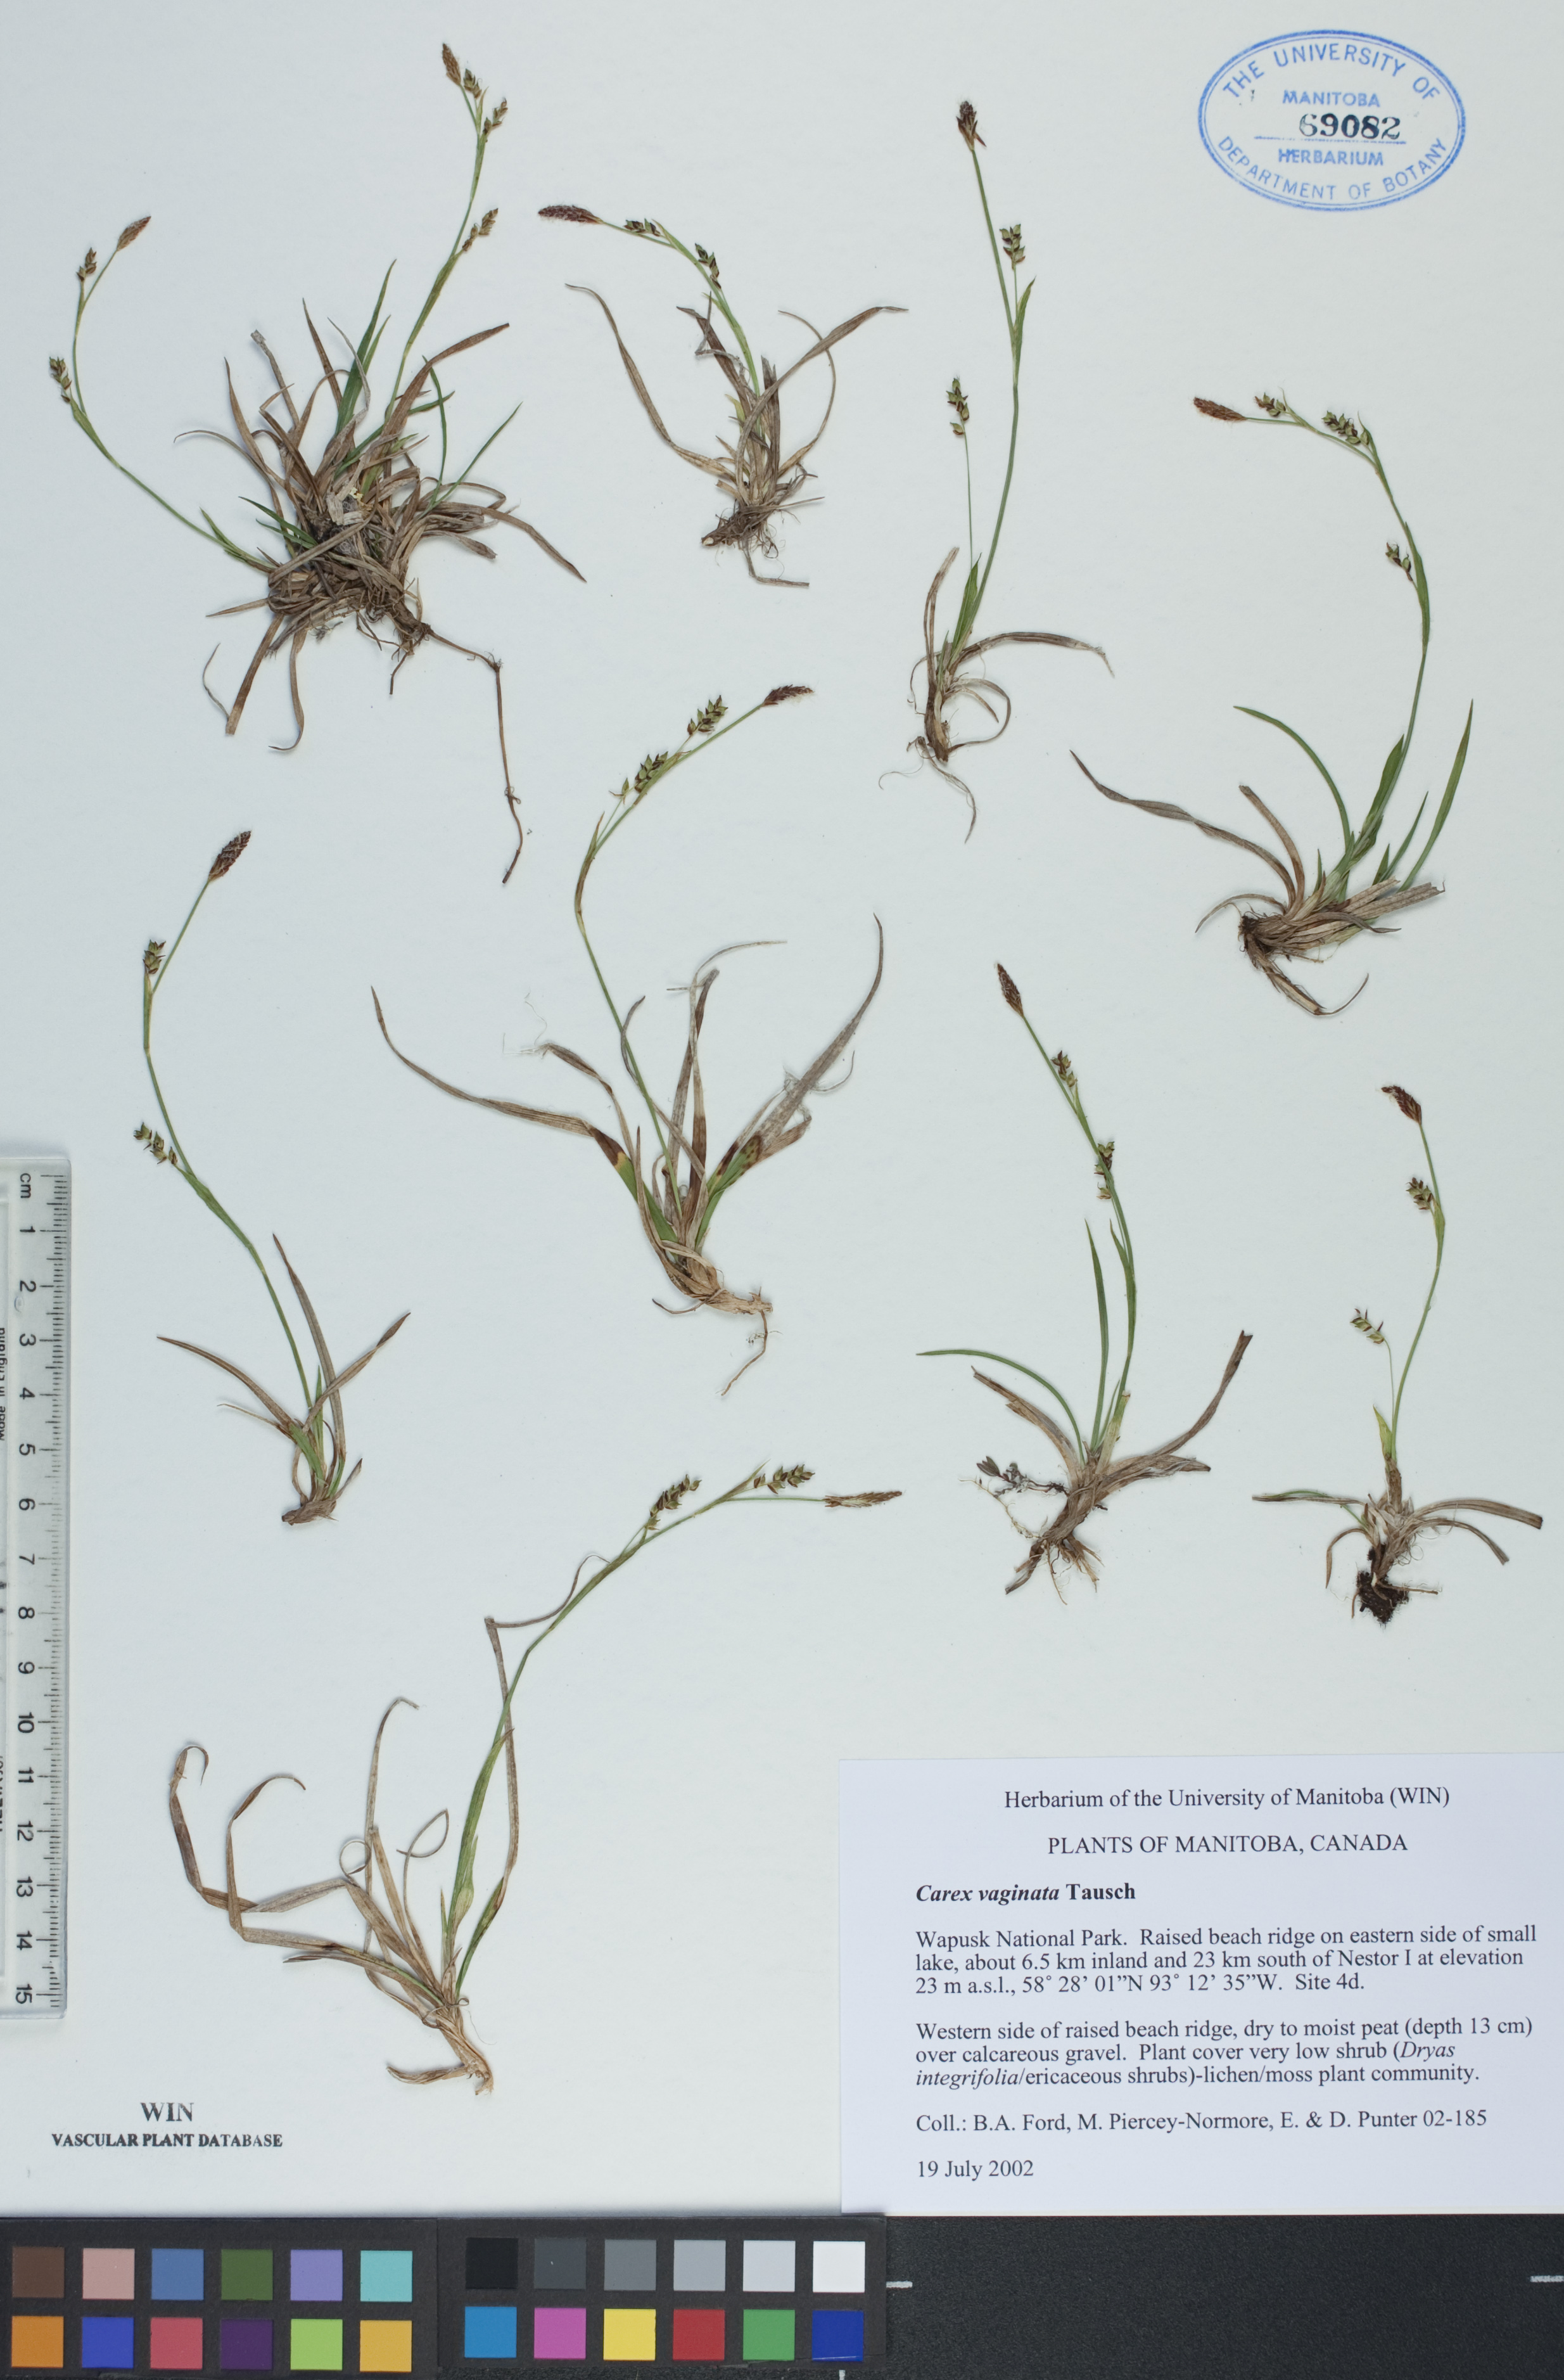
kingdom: Plantae
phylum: Tracheophyta
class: Liliopsida
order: Poales
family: Cyperaceae
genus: Carex
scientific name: Carex vaginata
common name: Sheathed sedge
